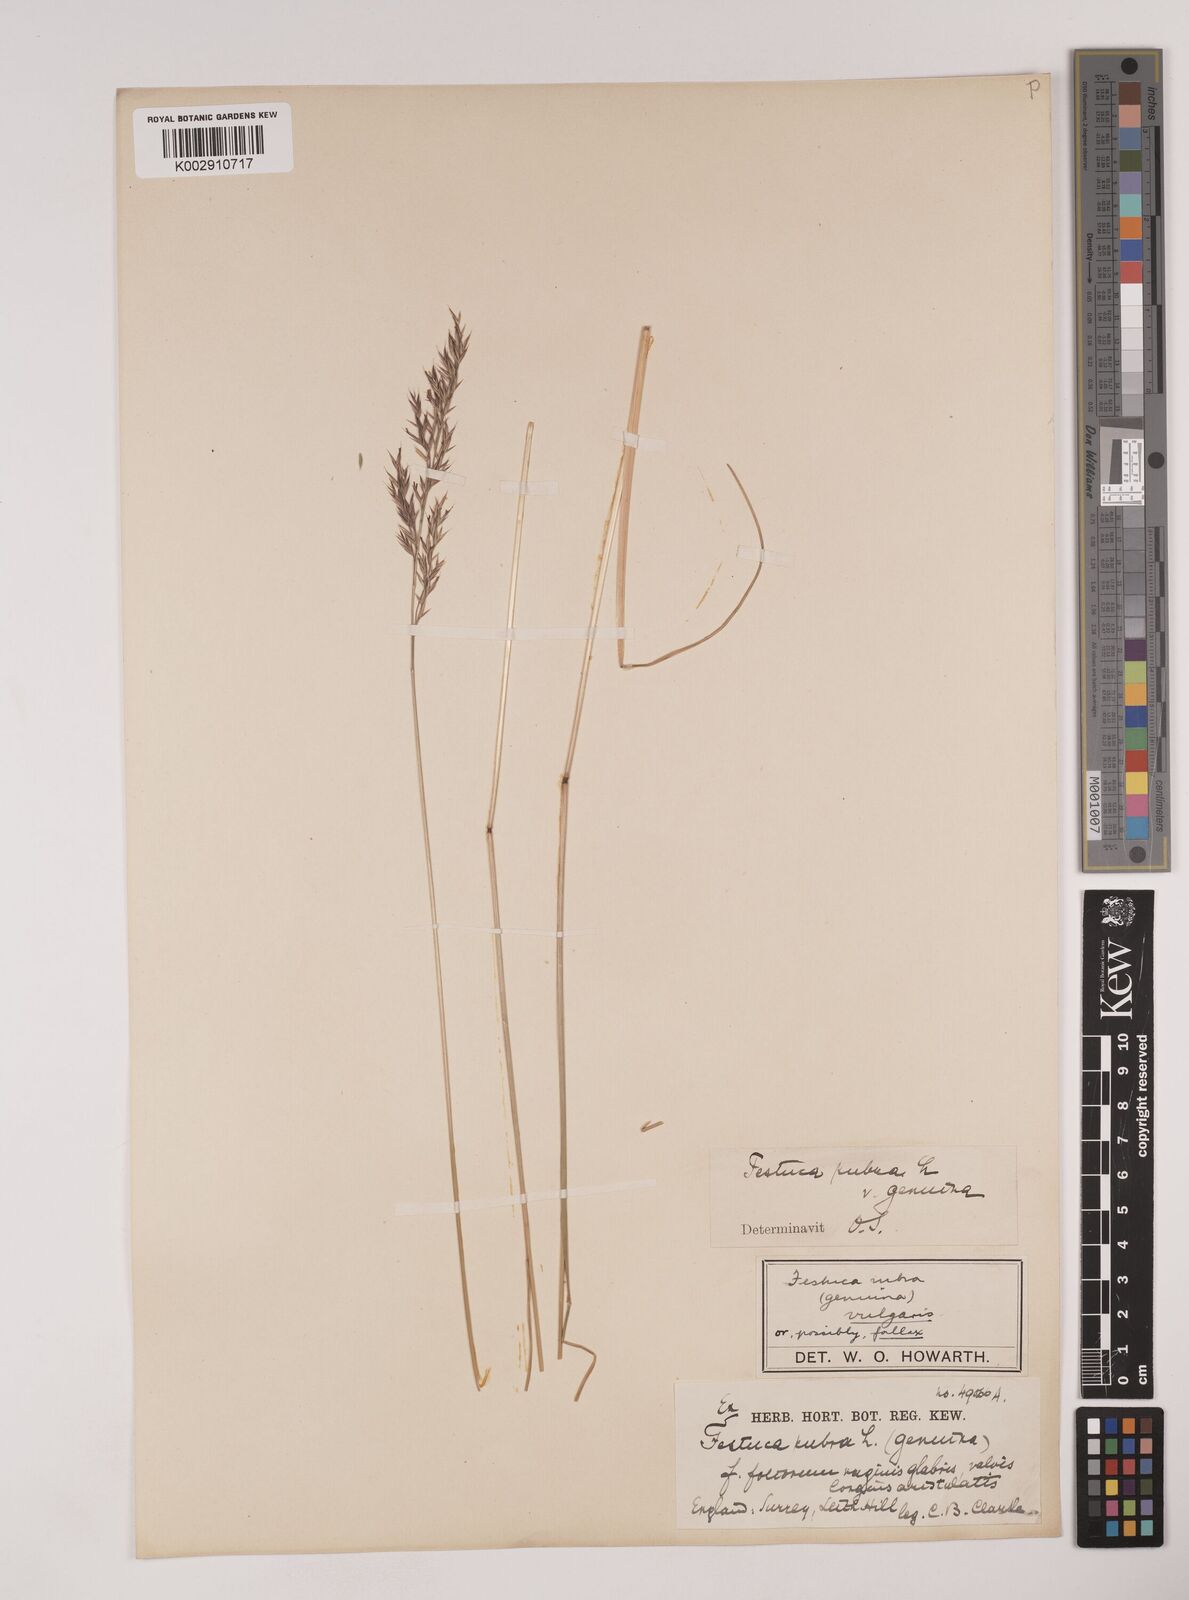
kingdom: Plantae
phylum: Tracheophyta
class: Liliopsida
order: Poales
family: Poaceae
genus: Festuca
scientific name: Festuca rubra
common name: Red fescue
